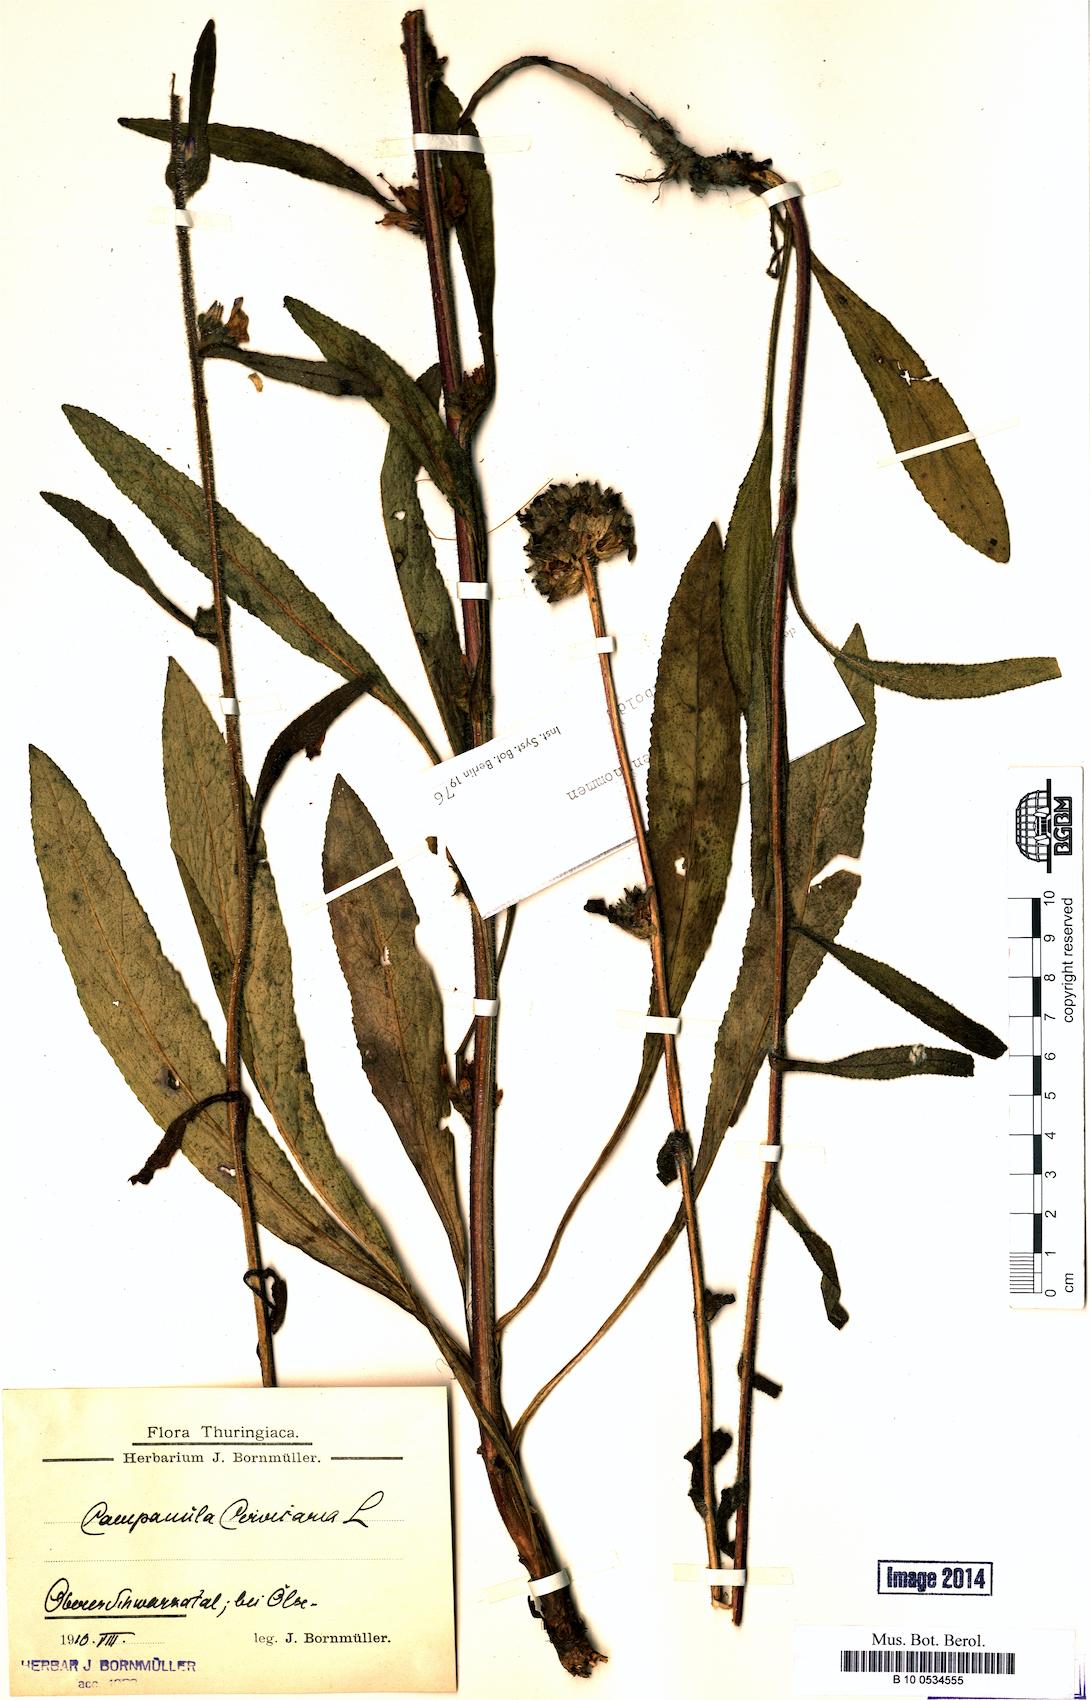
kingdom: Plantae
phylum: Tracheophyta
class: Magnoliopsida
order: Asterales
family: Campanulaceae
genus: Campanula
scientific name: Campanula cervicaria
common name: Bristly bellflower
